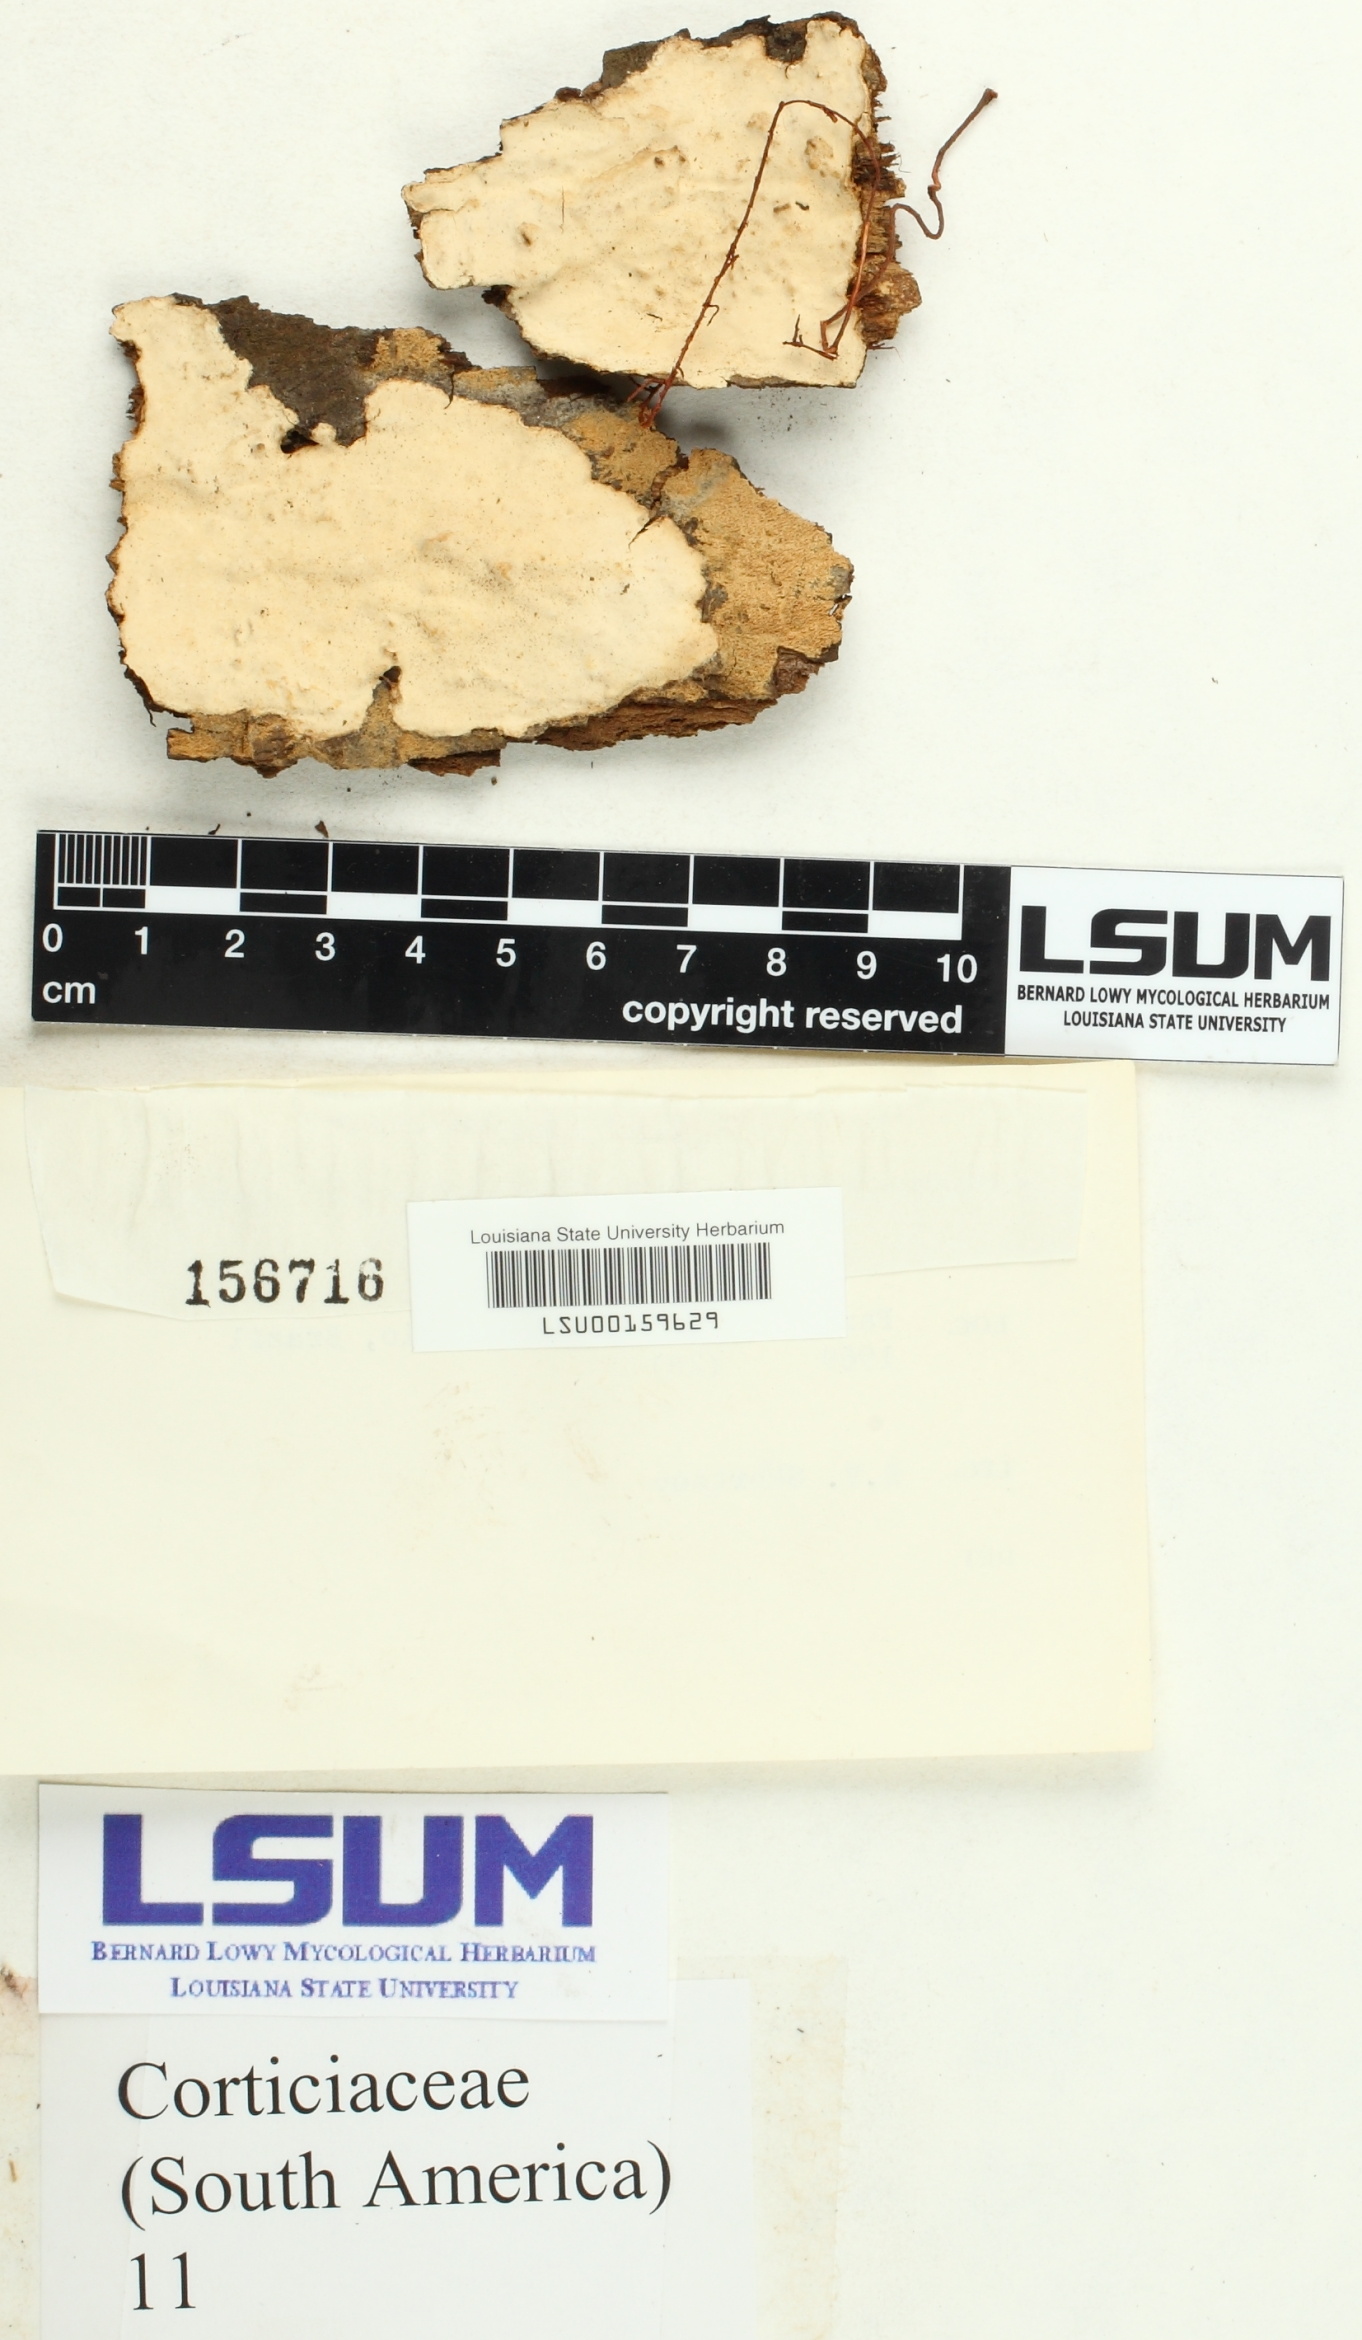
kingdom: Fungi
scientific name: Fungi
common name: Fungi
